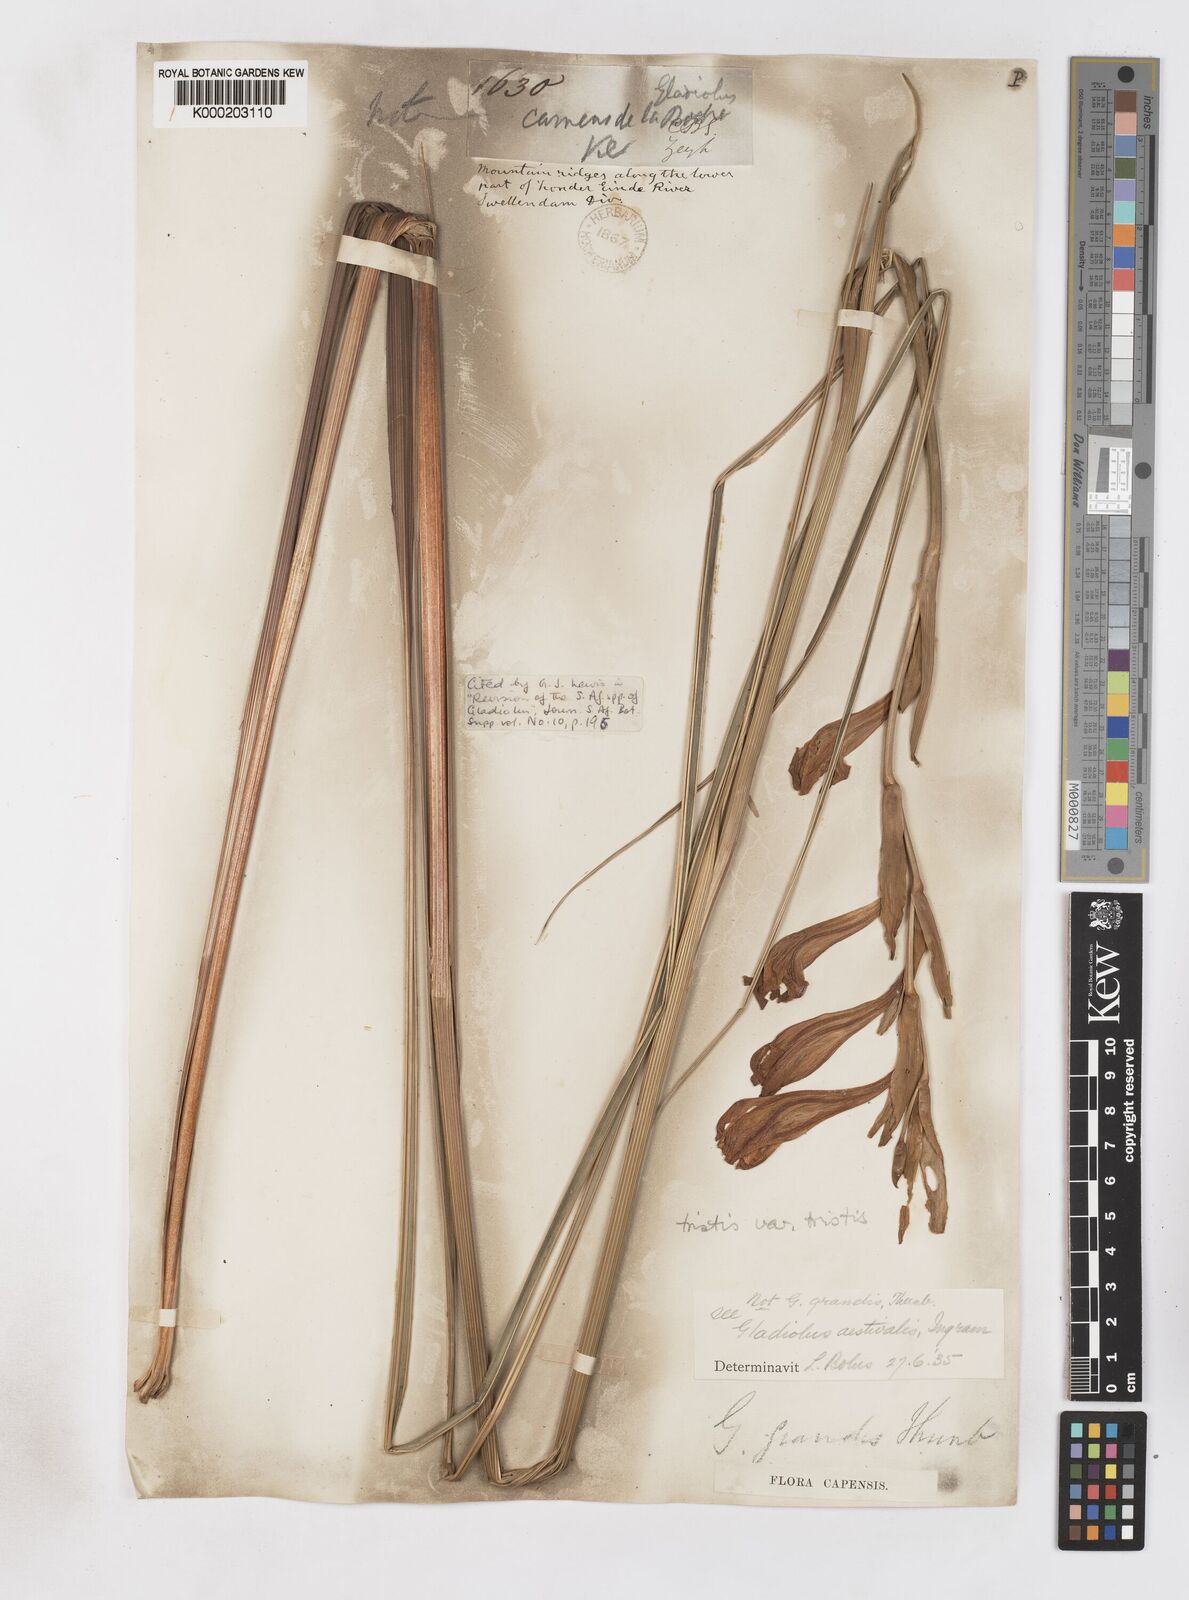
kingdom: Plantae
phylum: Tracheophyta
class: Liliopsida
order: Asparagales
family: Iridaceae
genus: Gladiolus
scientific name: Gladiolus tristis
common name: Ever-flowering gladiolus
